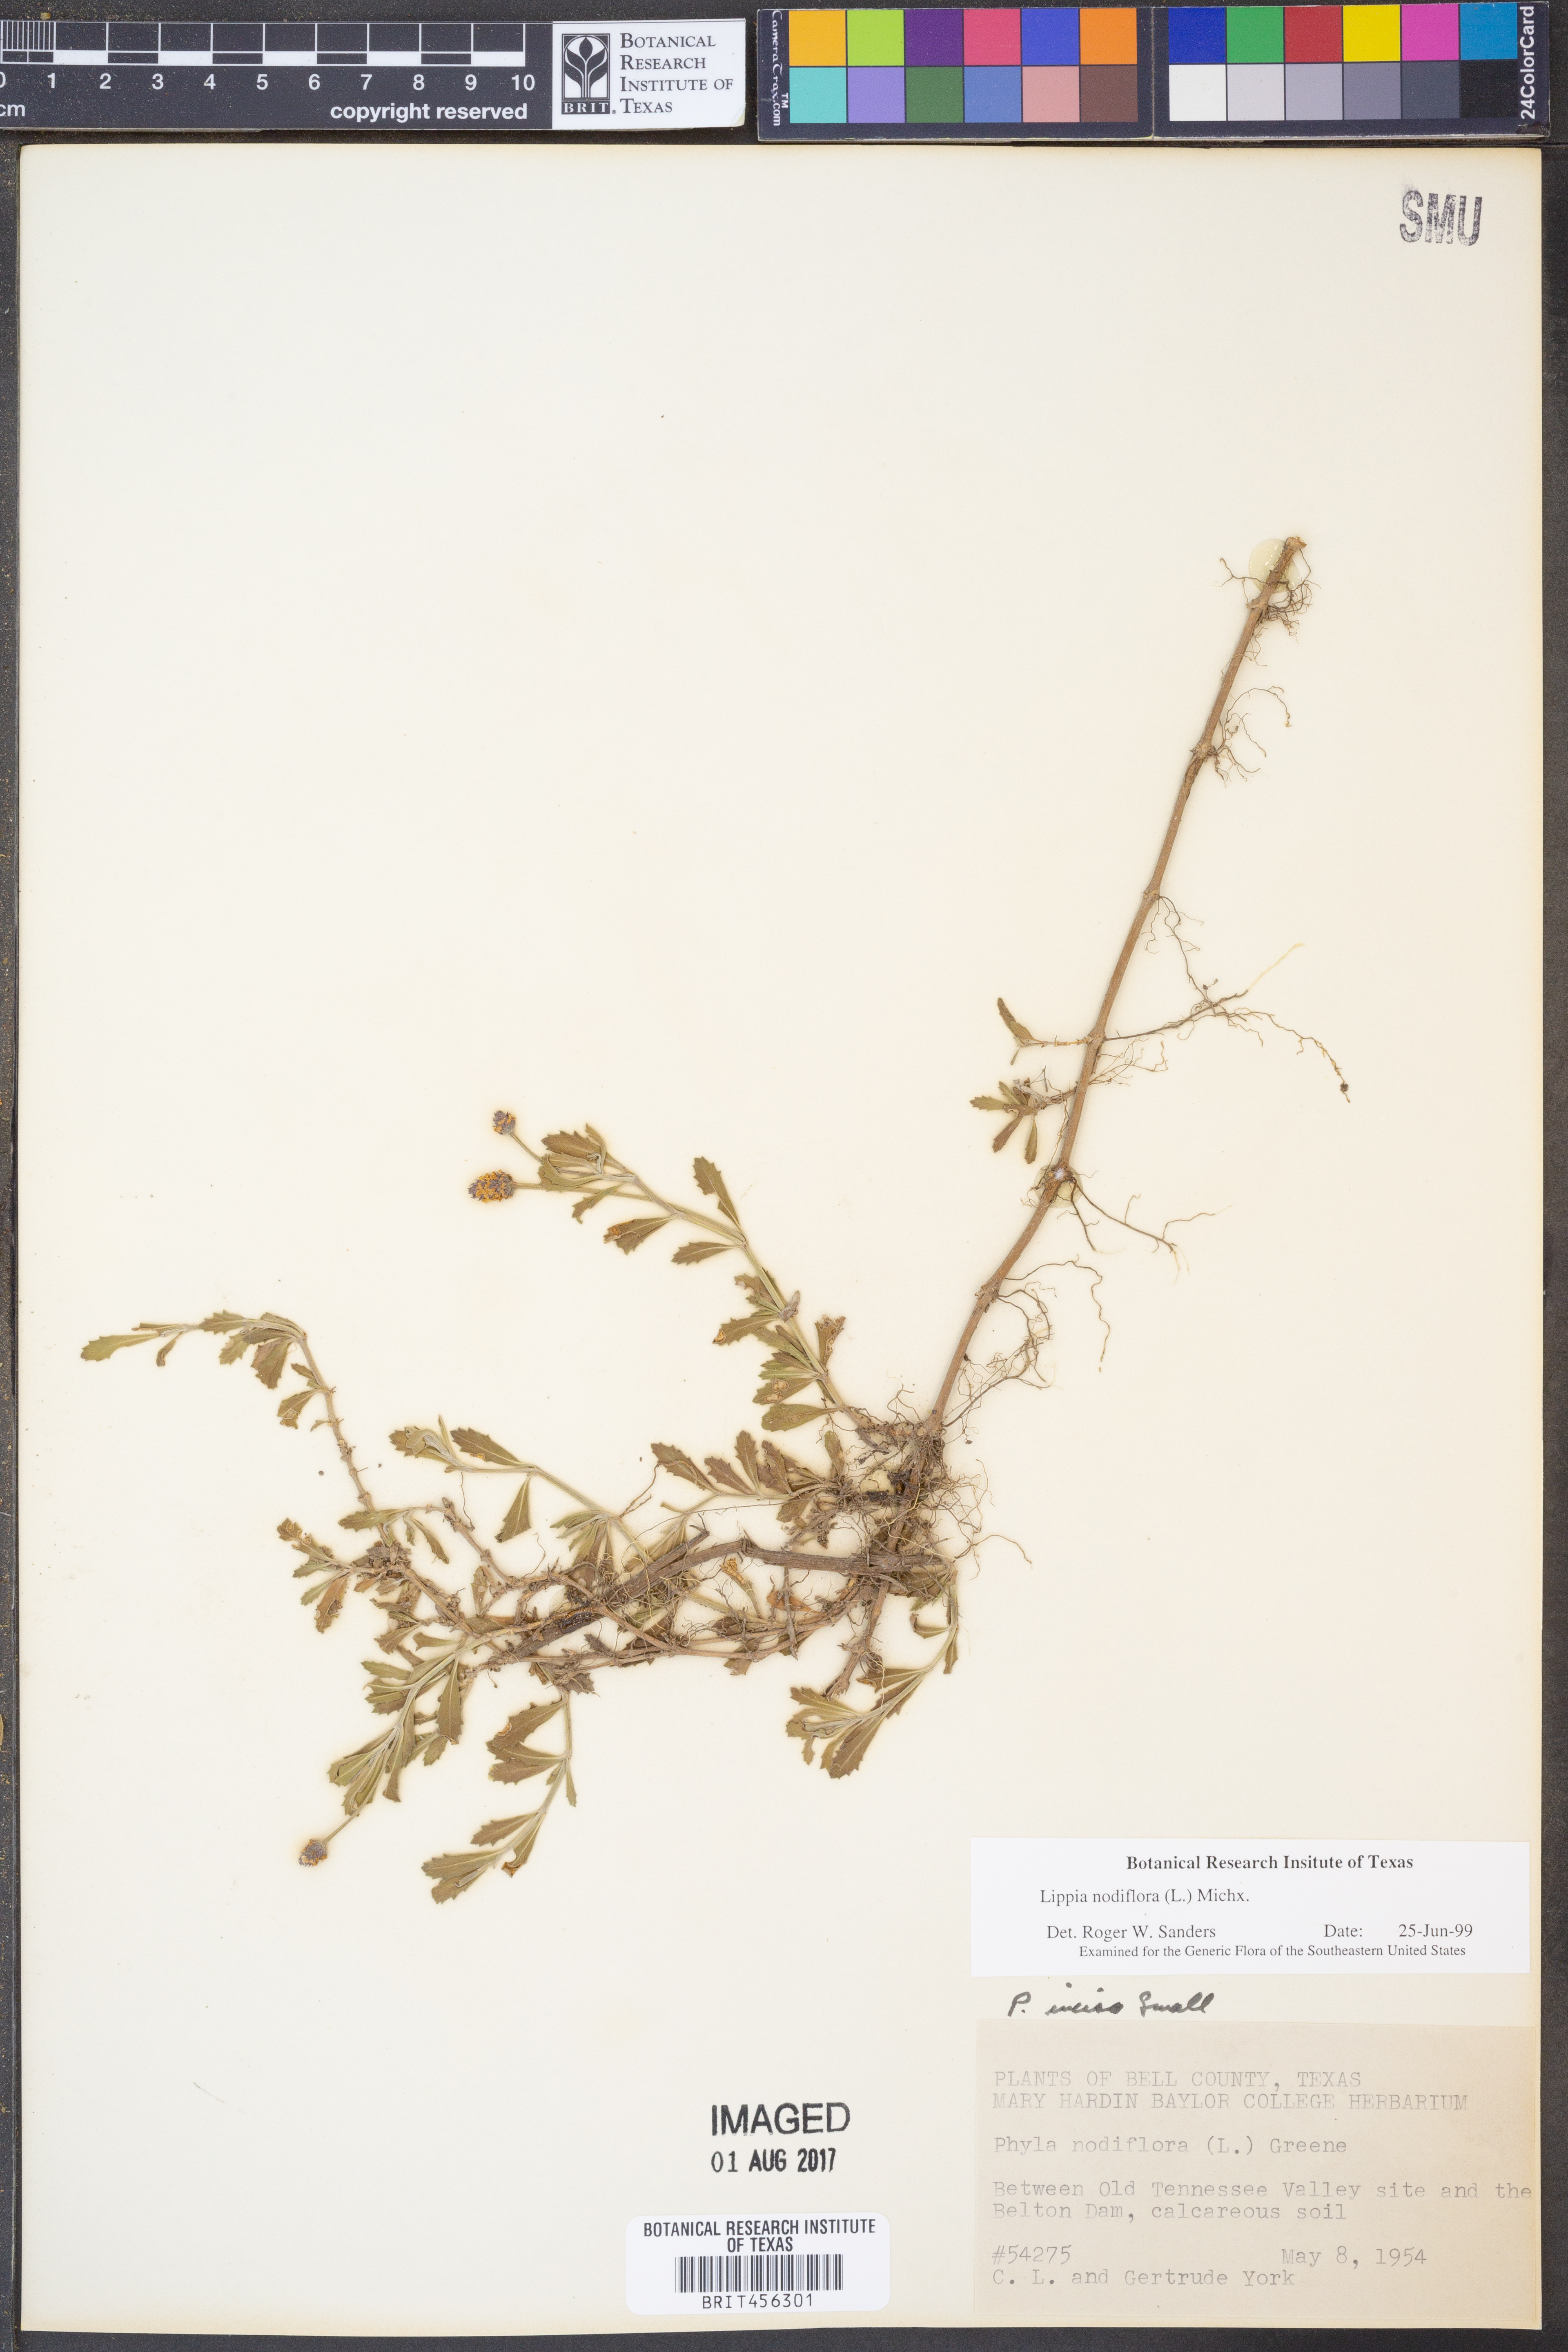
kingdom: Plantae
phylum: Tracheophyta
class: Magnoliopsida
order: Lamiales
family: Verbenaceae
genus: Phyla
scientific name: Phyla nodiflora
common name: Frogfruit
